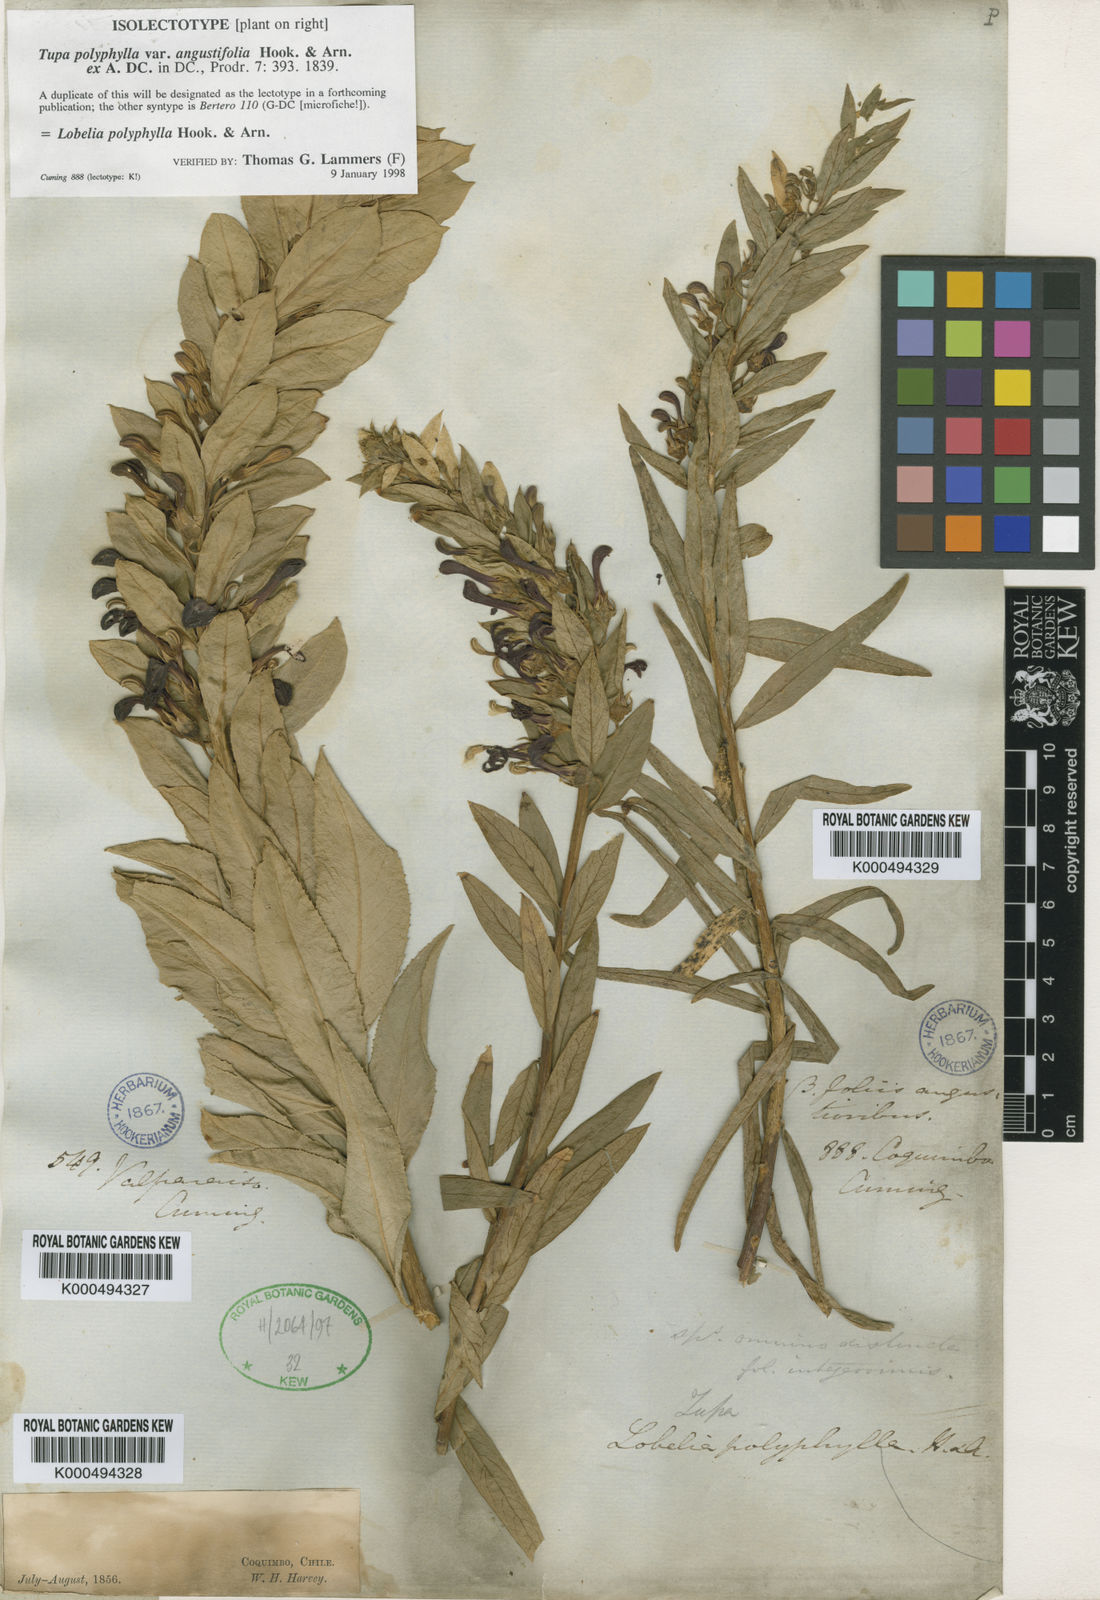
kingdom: Plantae
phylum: Tracheophyta
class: Magnoliopsida
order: Asterales
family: Campanulaceae
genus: Lobelia
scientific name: Lobelia polyphylla
